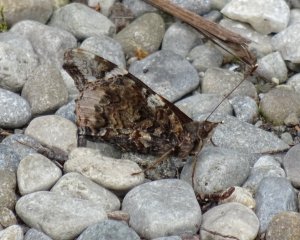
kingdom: Animalia
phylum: Arthropoda
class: Insecta
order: Lepidoptera
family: Nymphalidae
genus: Vanessa
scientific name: Vanessa atalanta
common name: Red Admiral
